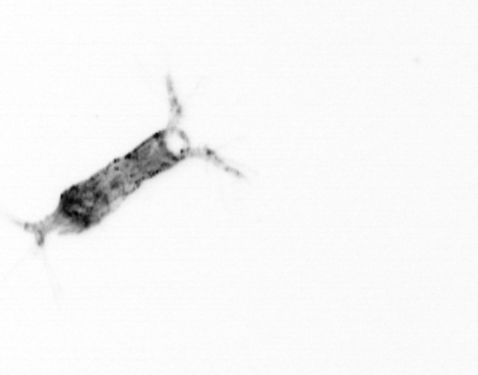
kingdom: Animalia
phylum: Arthropoda
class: Copepoda
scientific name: Copepoda
